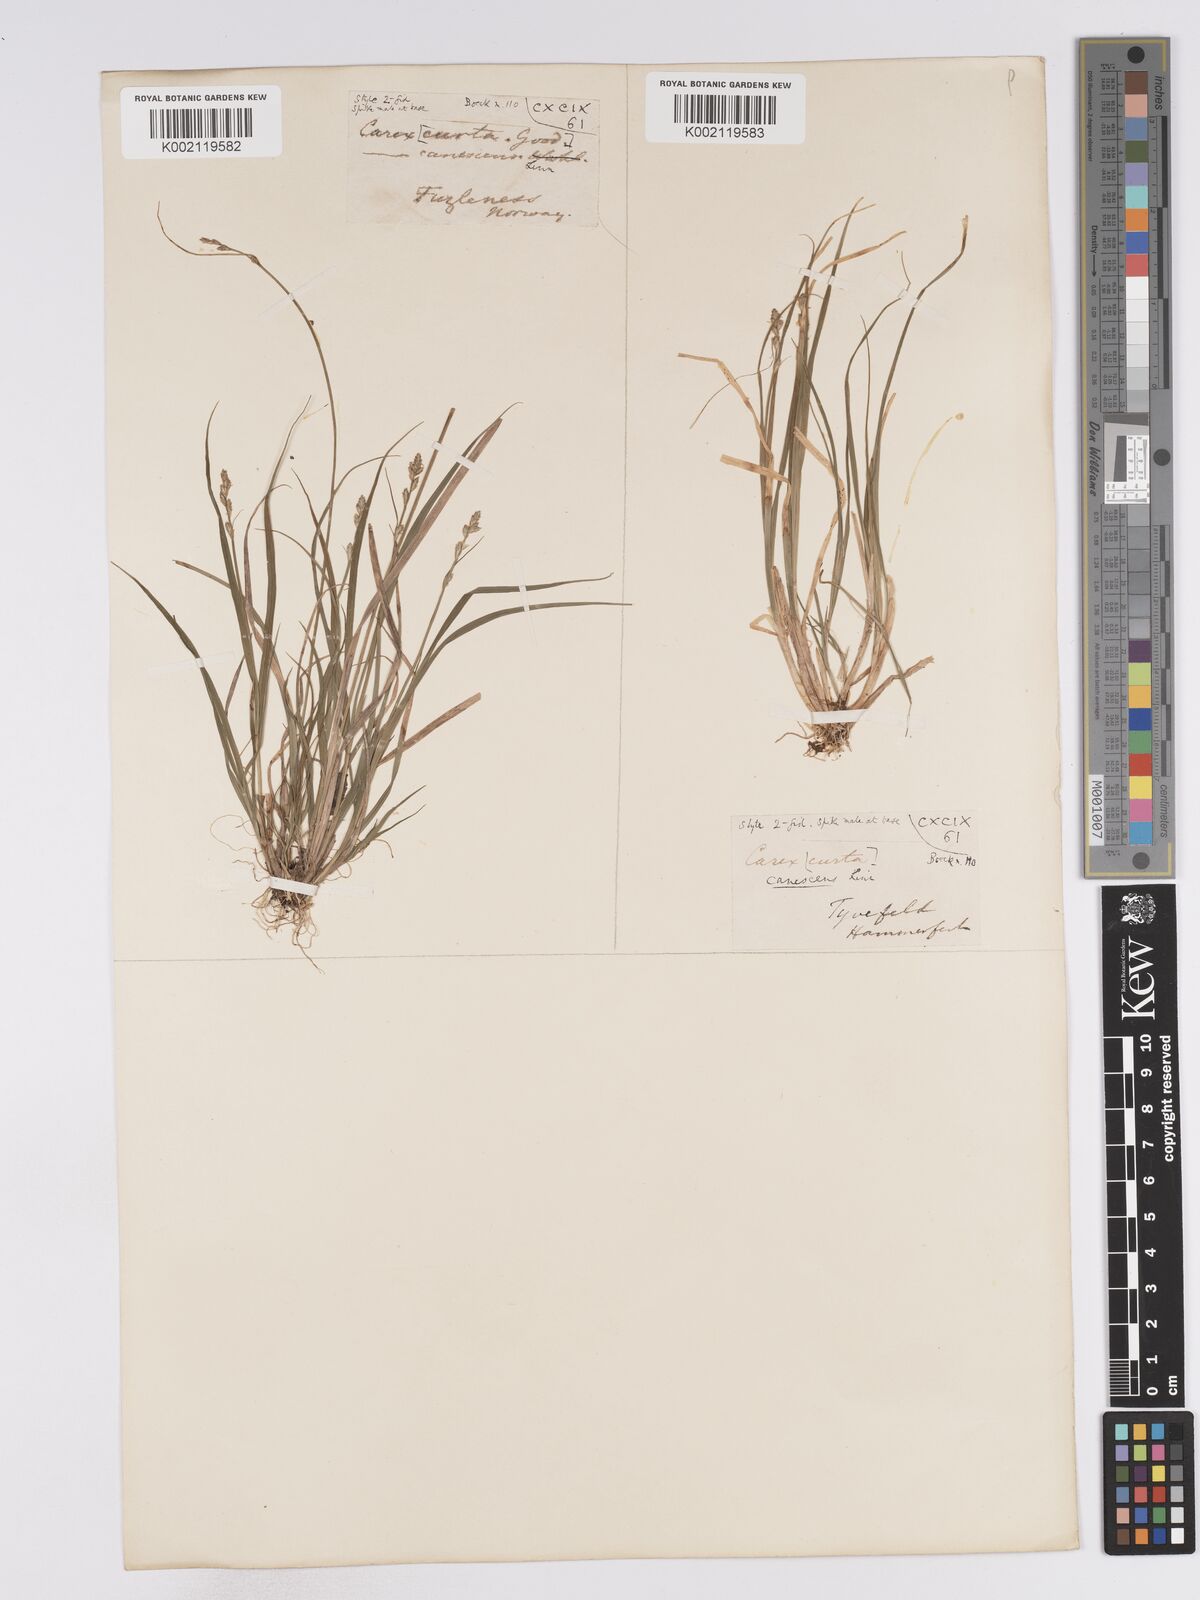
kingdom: Plantae
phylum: Tracheophyta
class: Liliopsida
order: Poales
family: Cyperaceae
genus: Carex
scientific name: Carex curta
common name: White sedge
